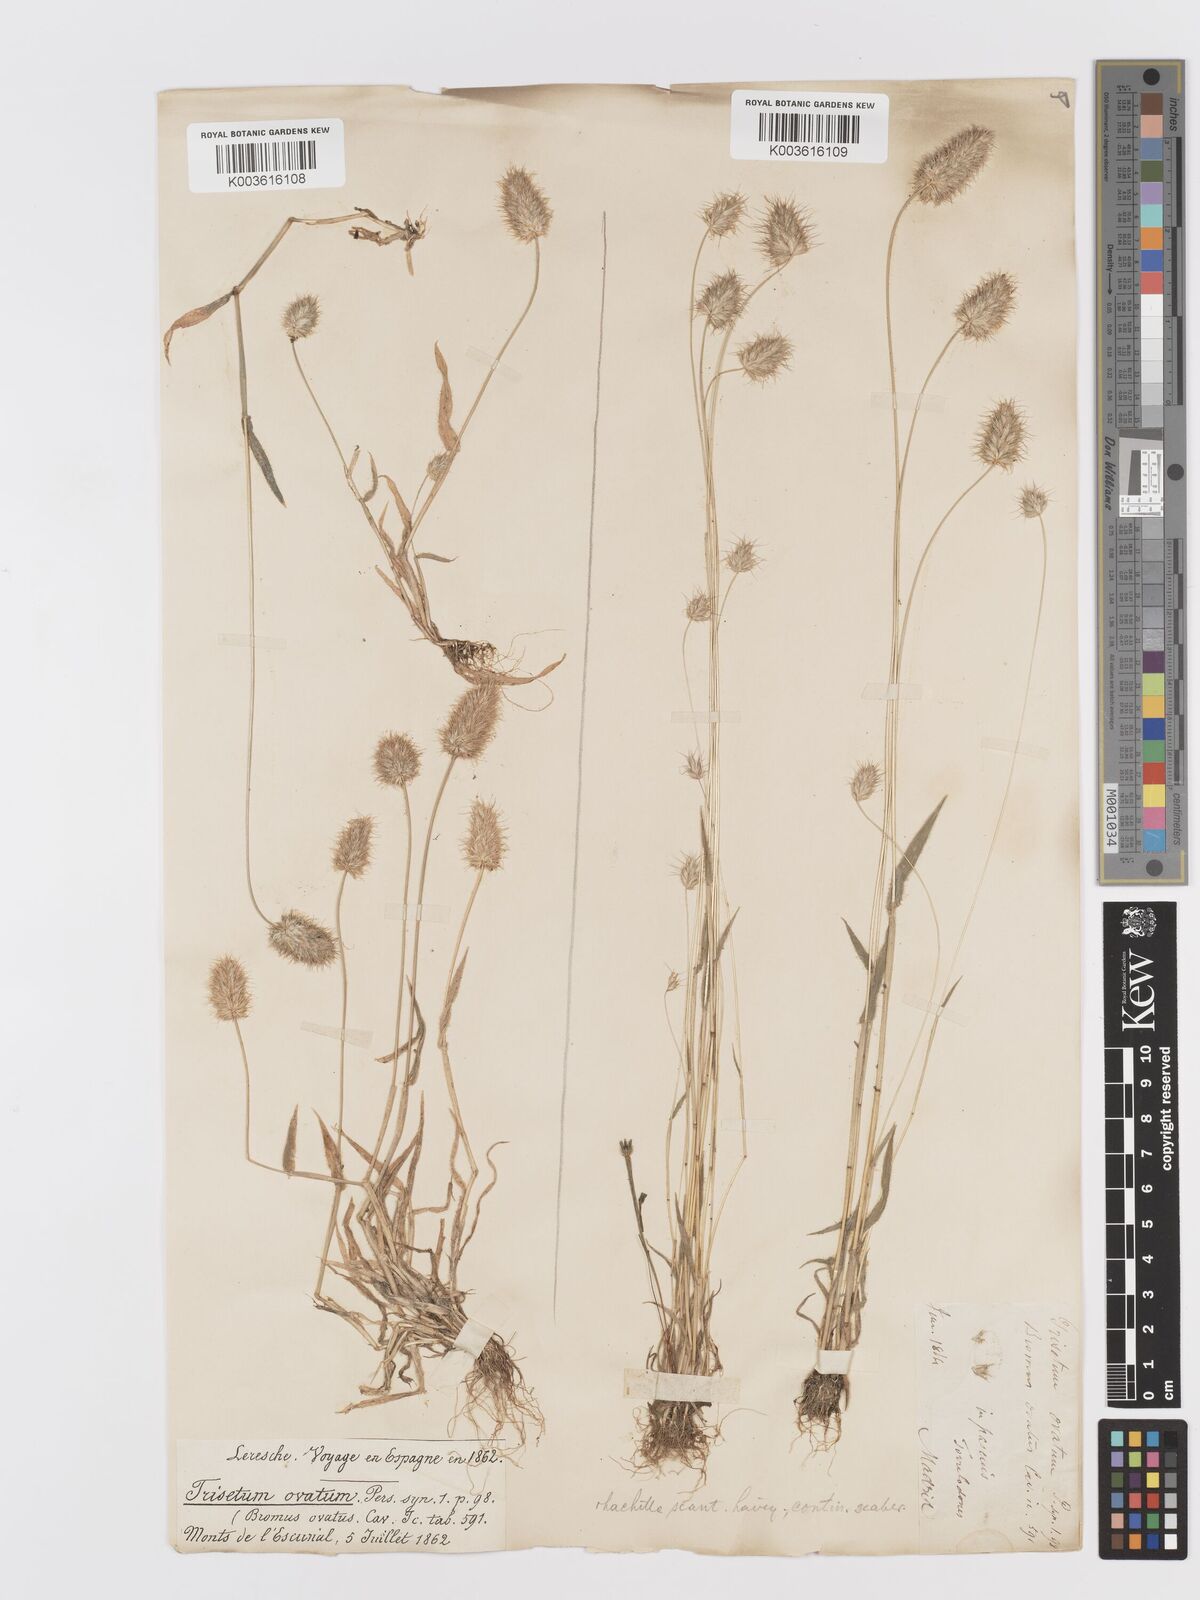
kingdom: Plantae
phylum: Tracheophyta
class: Liliopsida
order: Poales
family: Poaceae
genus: Trisetaria
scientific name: Trisetaria ovata
